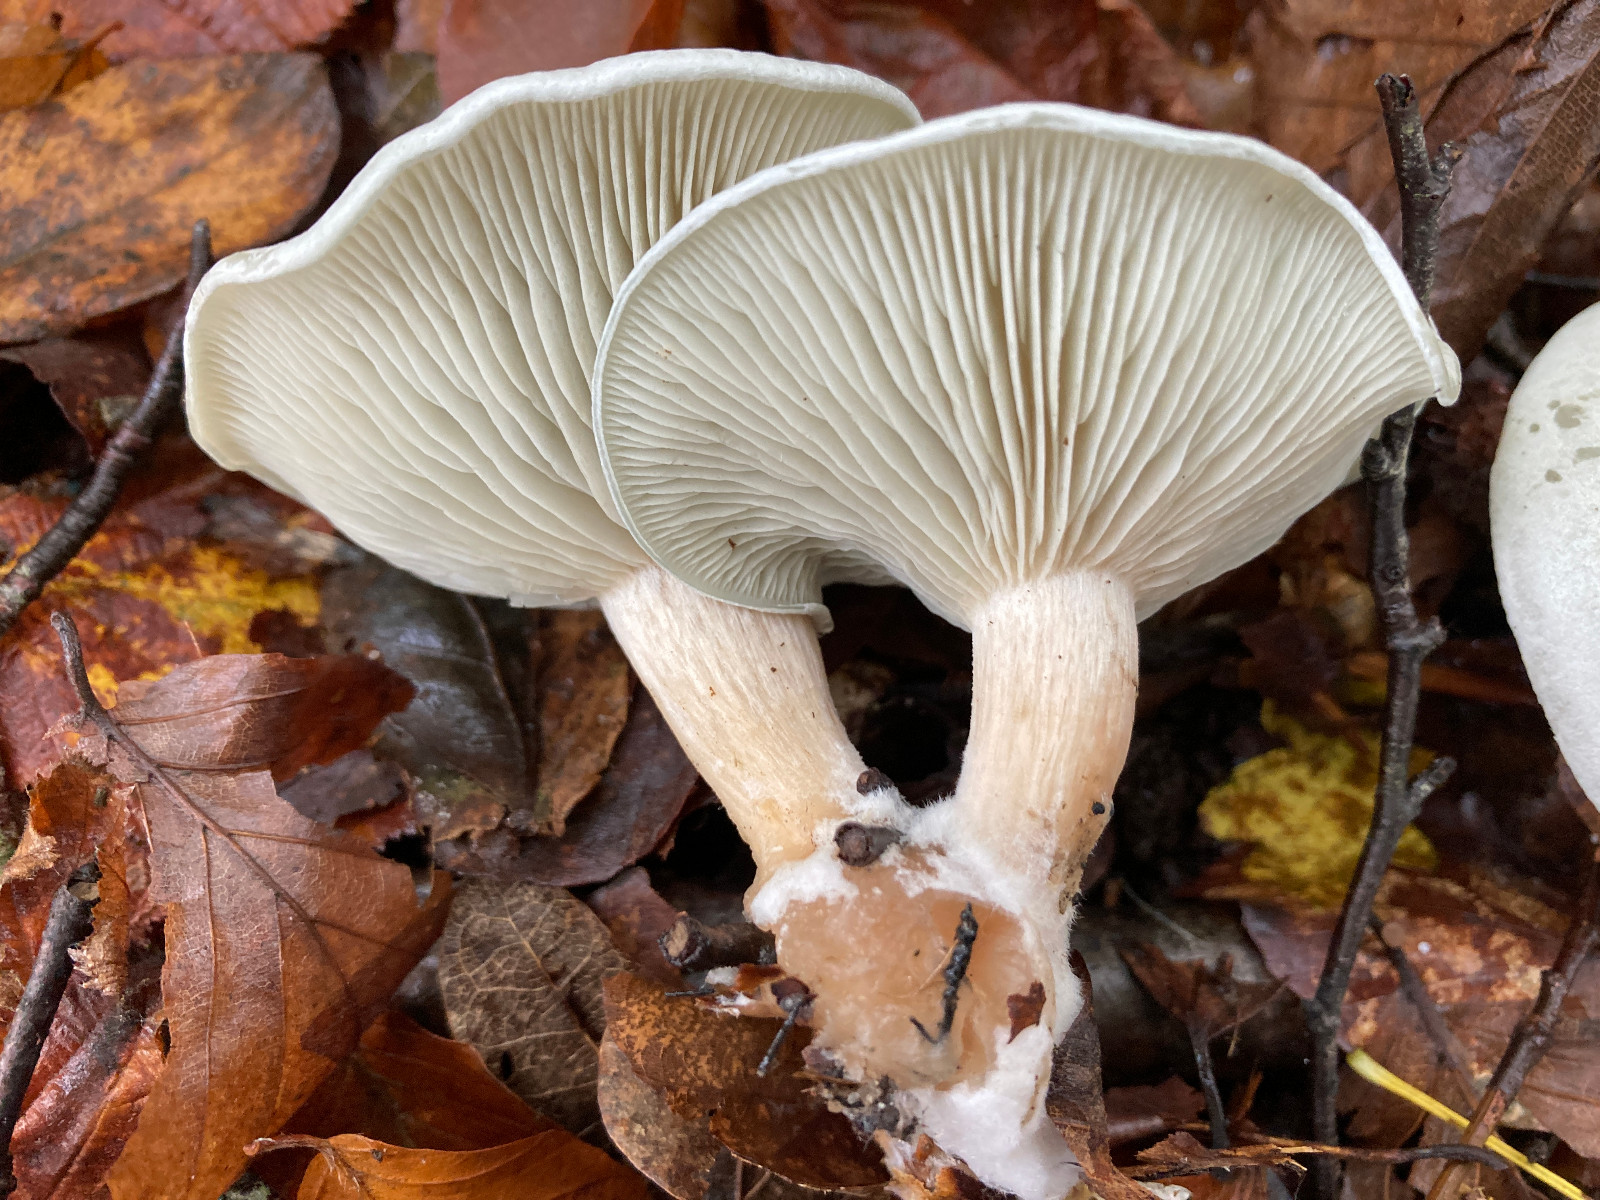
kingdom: Fungi
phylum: Basidiomycota
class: Agaricomycetes
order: Agaricales
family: Tricholomataceae
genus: Clitocybe
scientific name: Clitocybe odora
